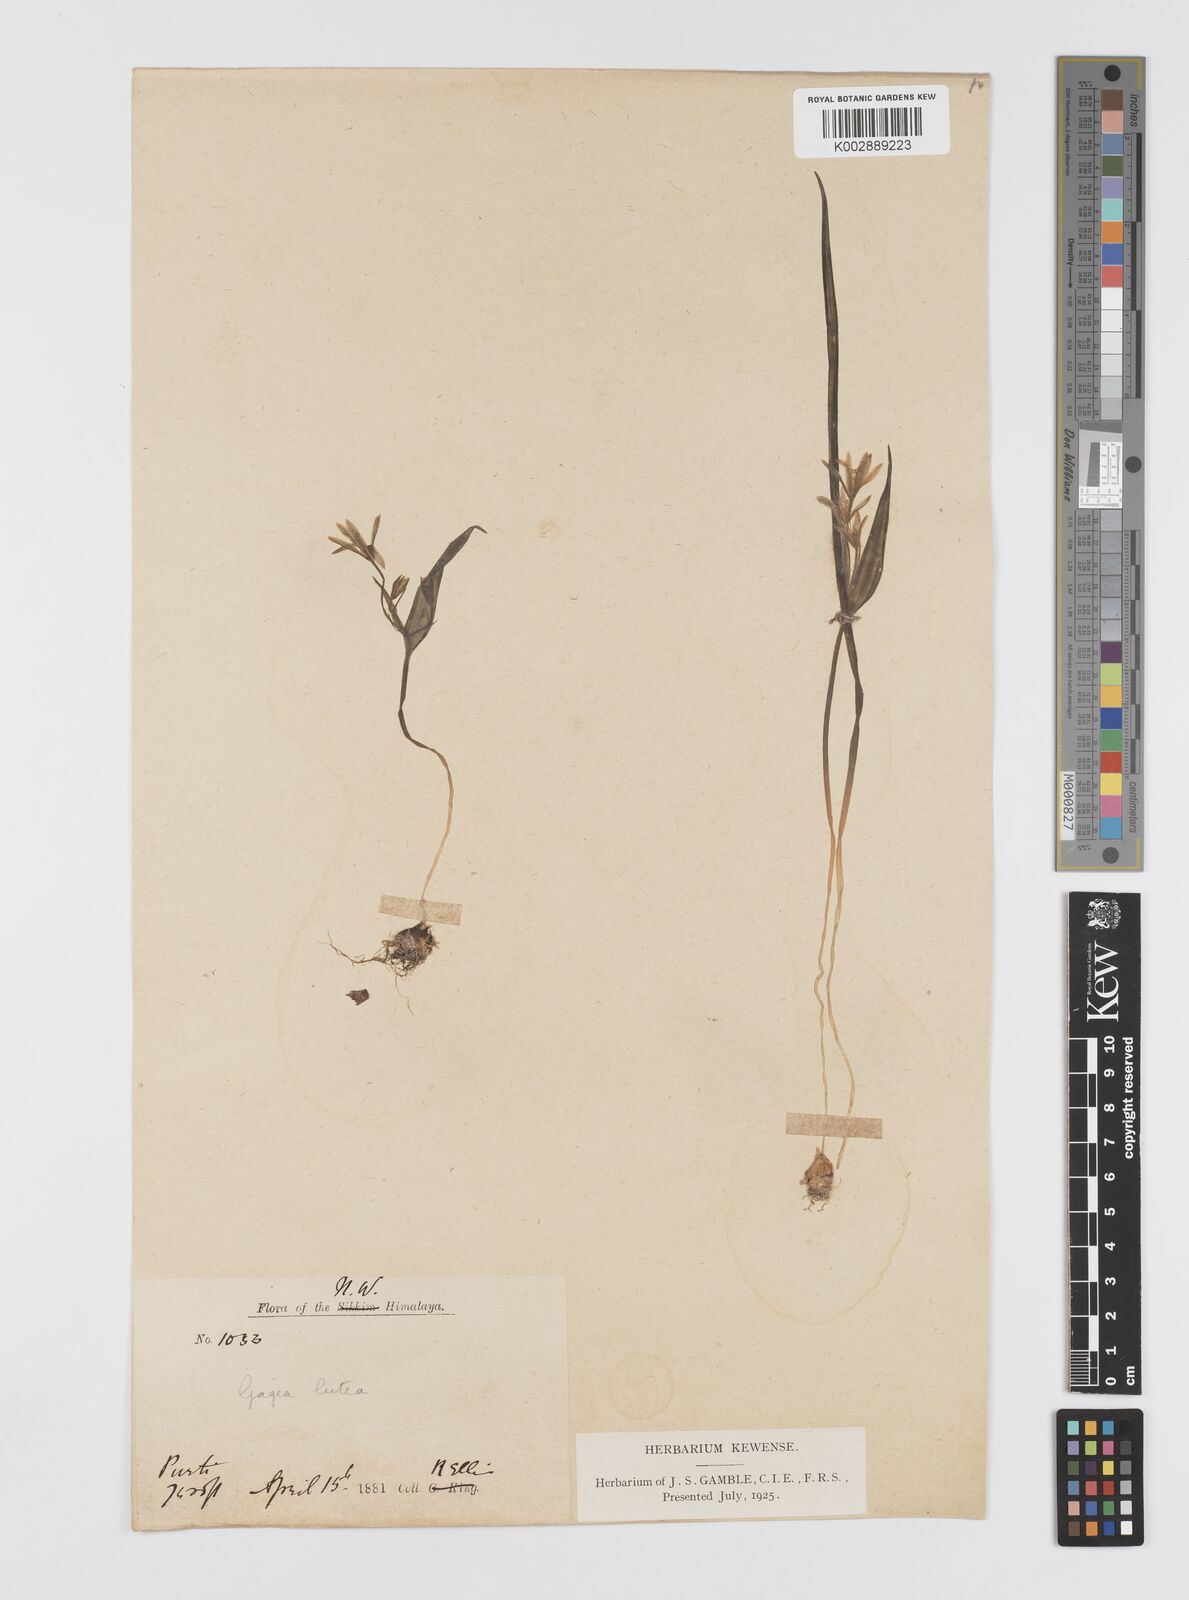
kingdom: Plantae
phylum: Tracheophyta
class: Liliopsida
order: Liliales
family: Liliaceae
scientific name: Liliaceae
